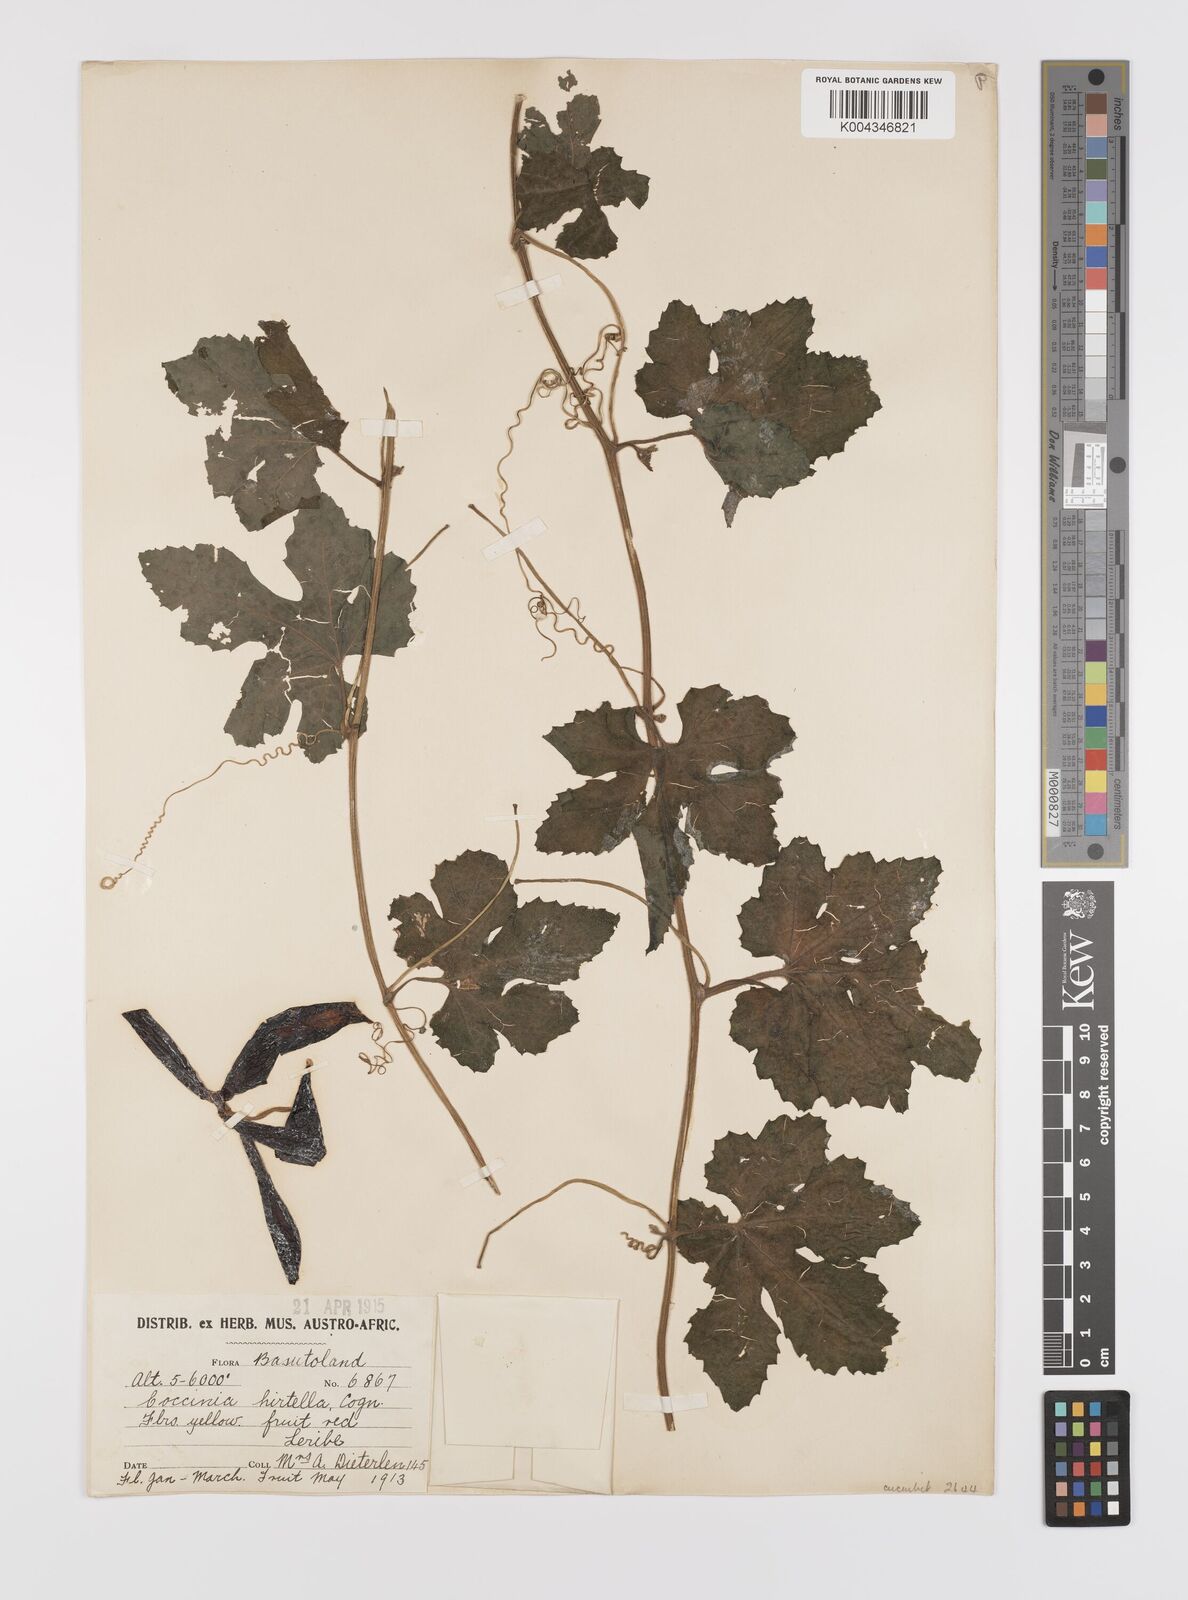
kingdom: Plantae
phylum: Tracheophyta
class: Magnoliopsida
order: Cucurbitales
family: Cucurbitaceae
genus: Coccinia
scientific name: Coccinia hirtella
